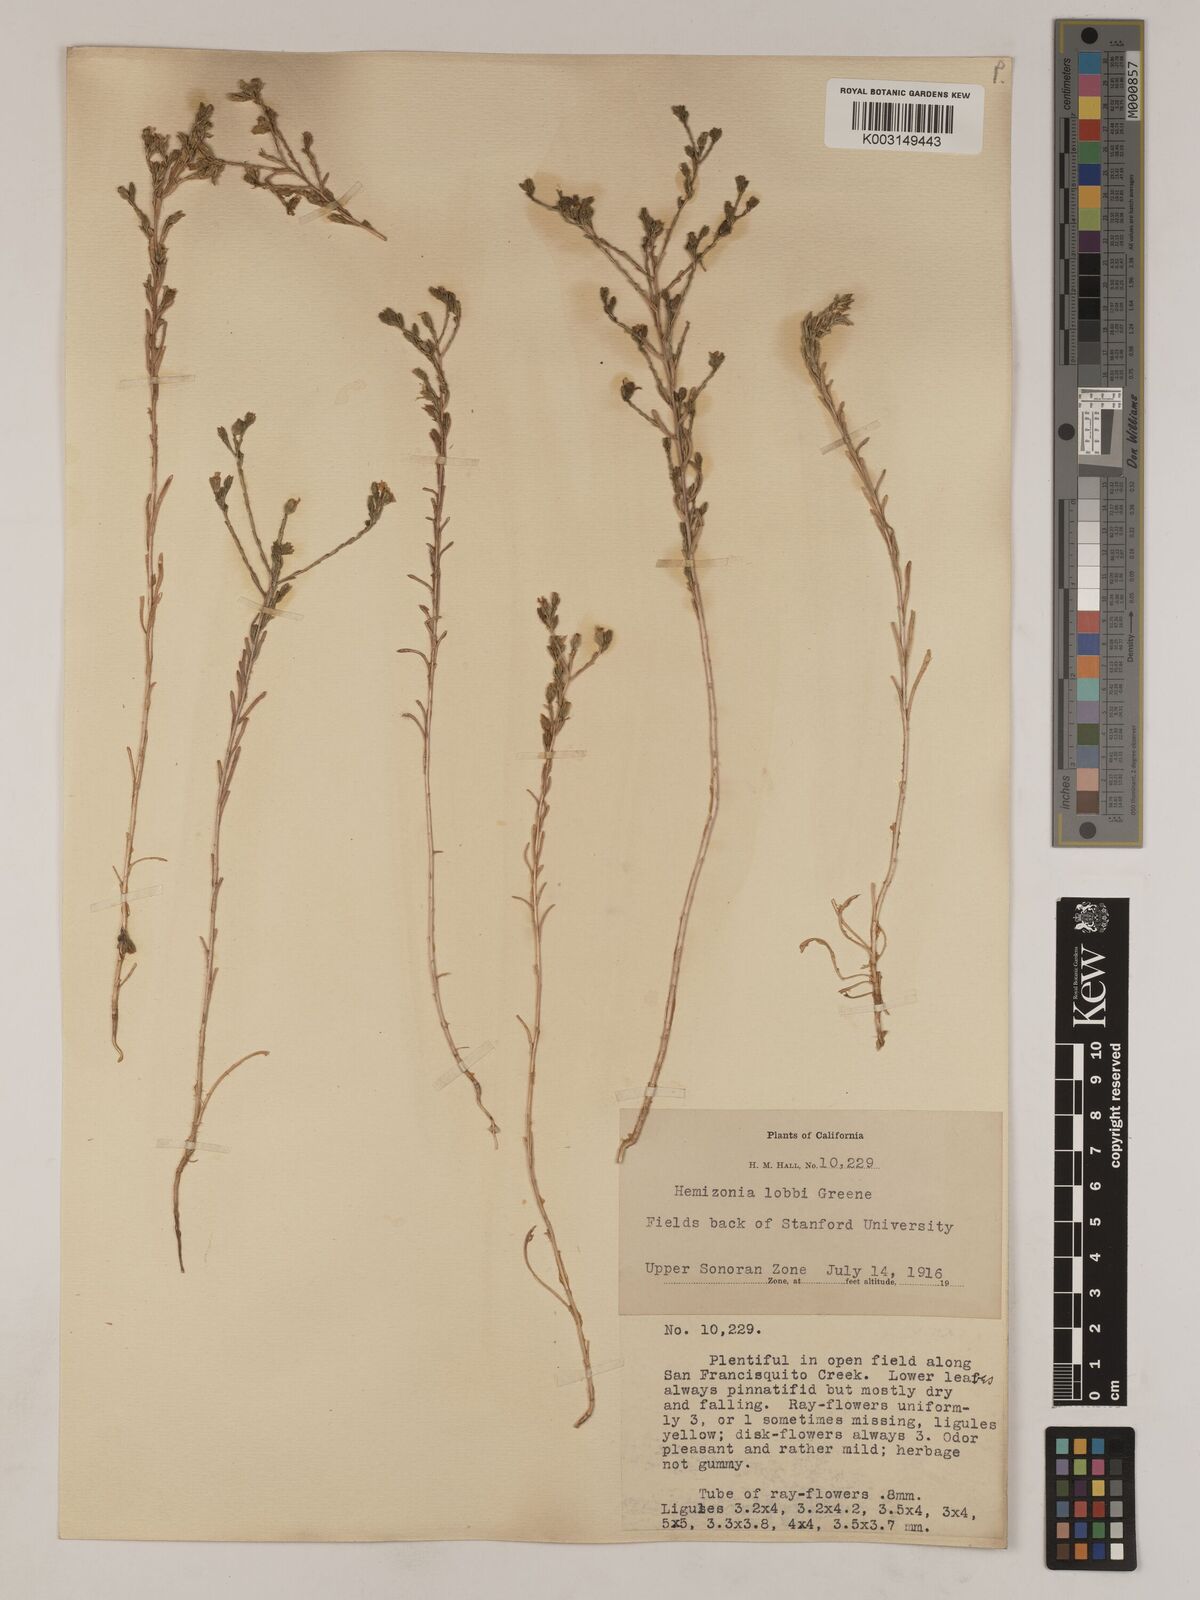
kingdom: Plantae
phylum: Tracheophyta
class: Magnoliopsida
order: Asterales
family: Asteraceae
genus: Deinandra
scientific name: Deinandra lobbii
